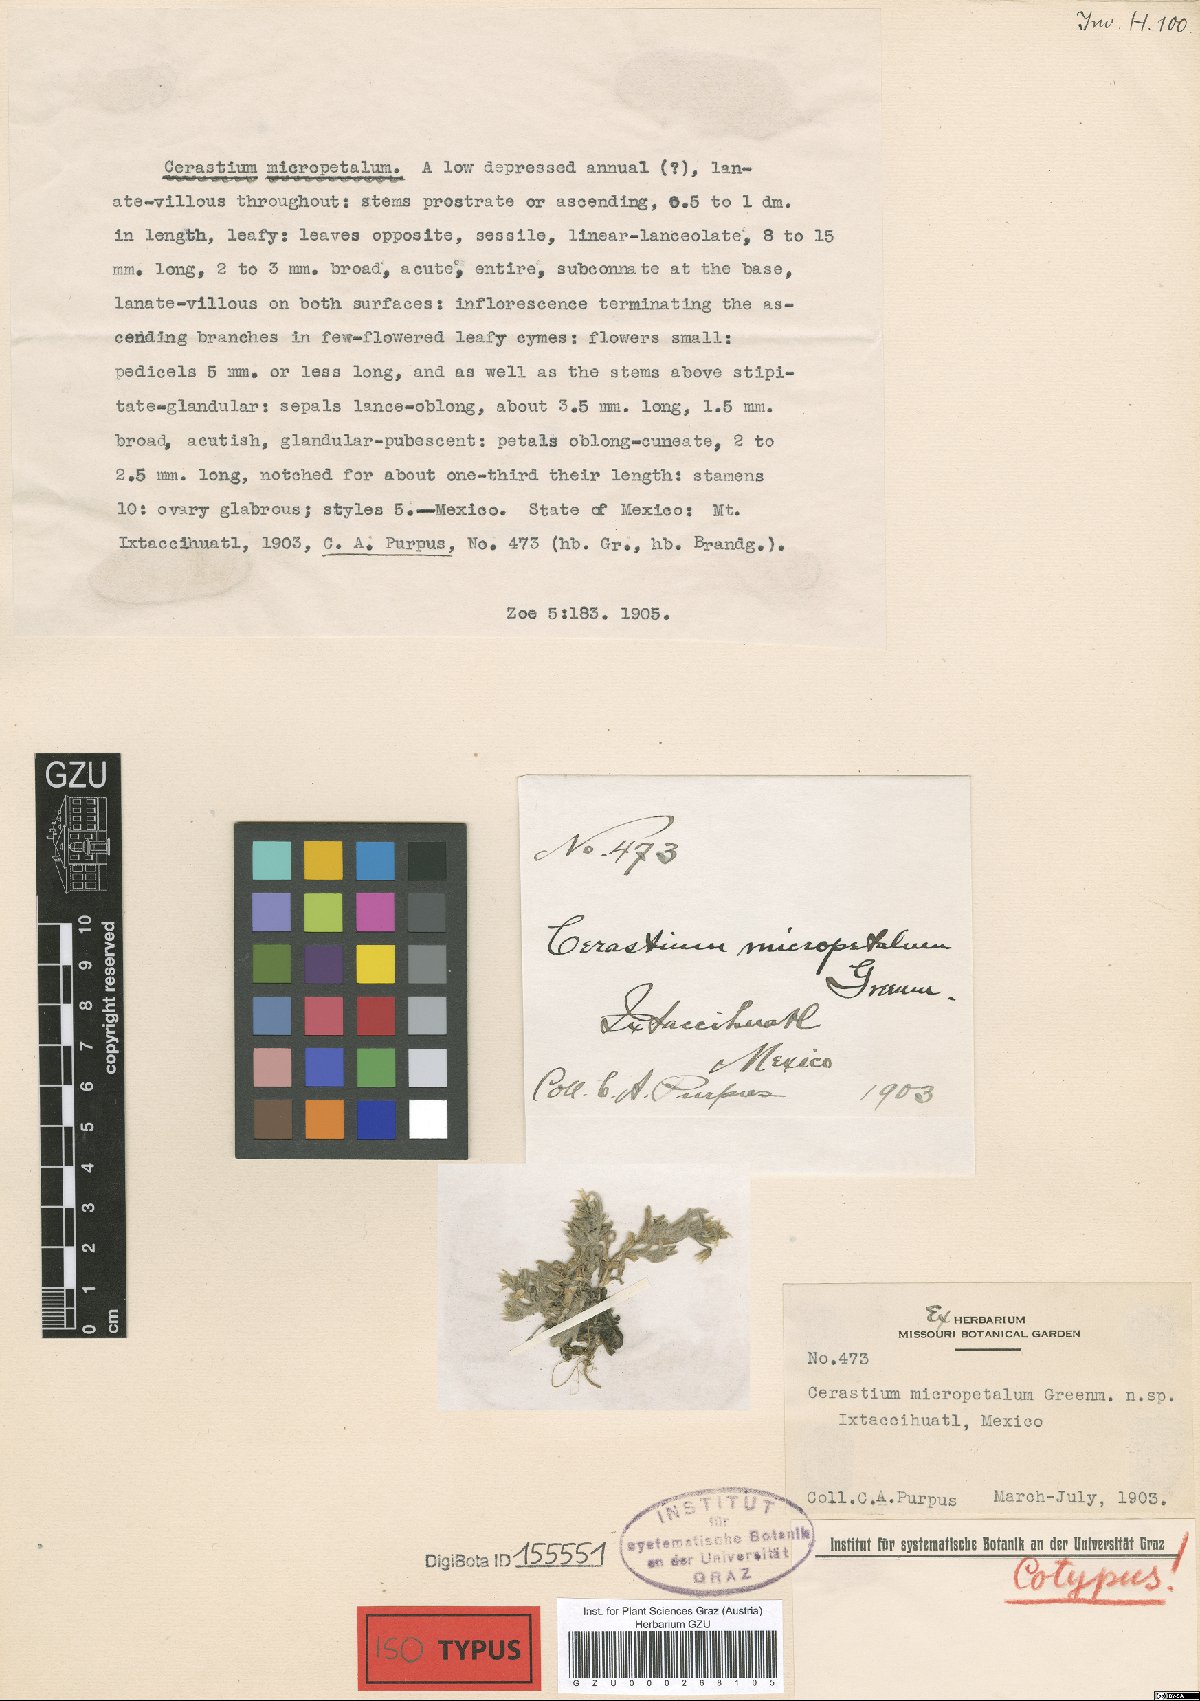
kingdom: Plantae
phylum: Tracheophyta
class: Magnoliopsida
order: Caryophyllales
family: Caryophyllaceae
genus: Cerastium
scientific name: Cerastium vulcanicum
